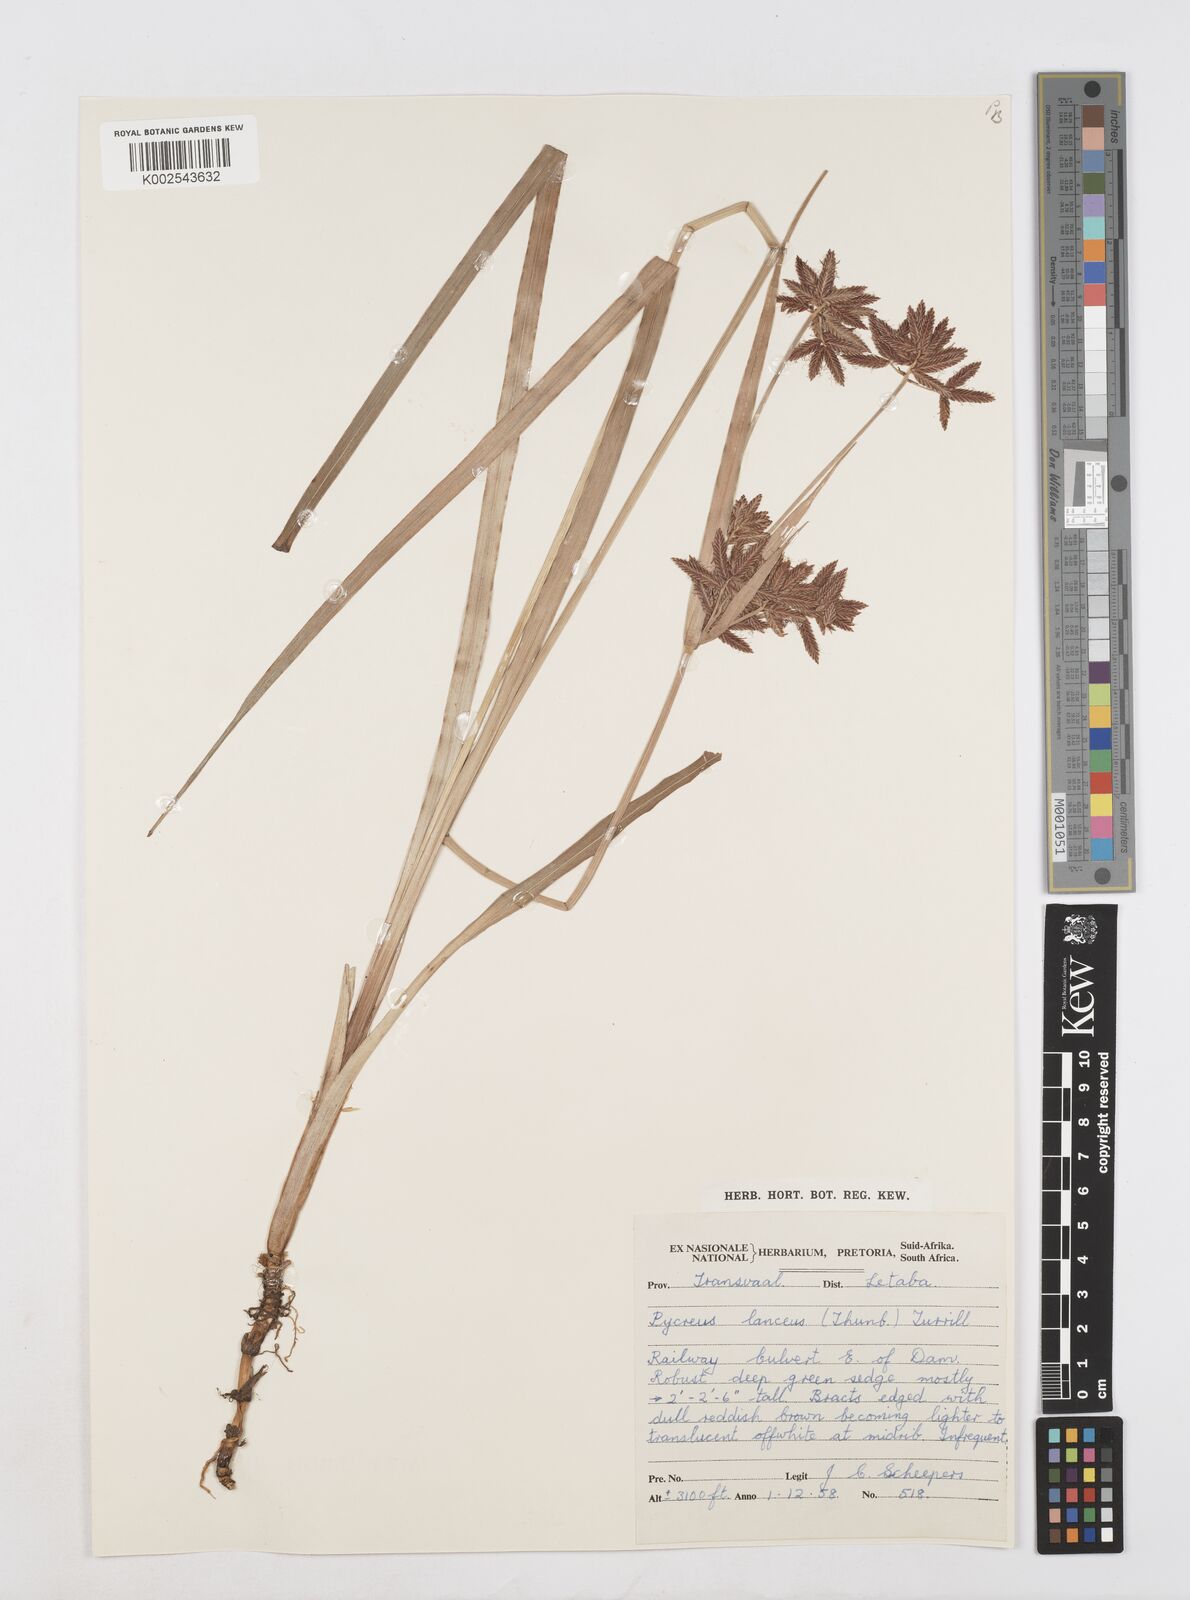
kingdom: Plantae
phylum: Tracheophyta
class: Liliopsida
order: Poales
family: Cyperaceae
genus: Cyperus
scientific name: Cyperus nitidus
